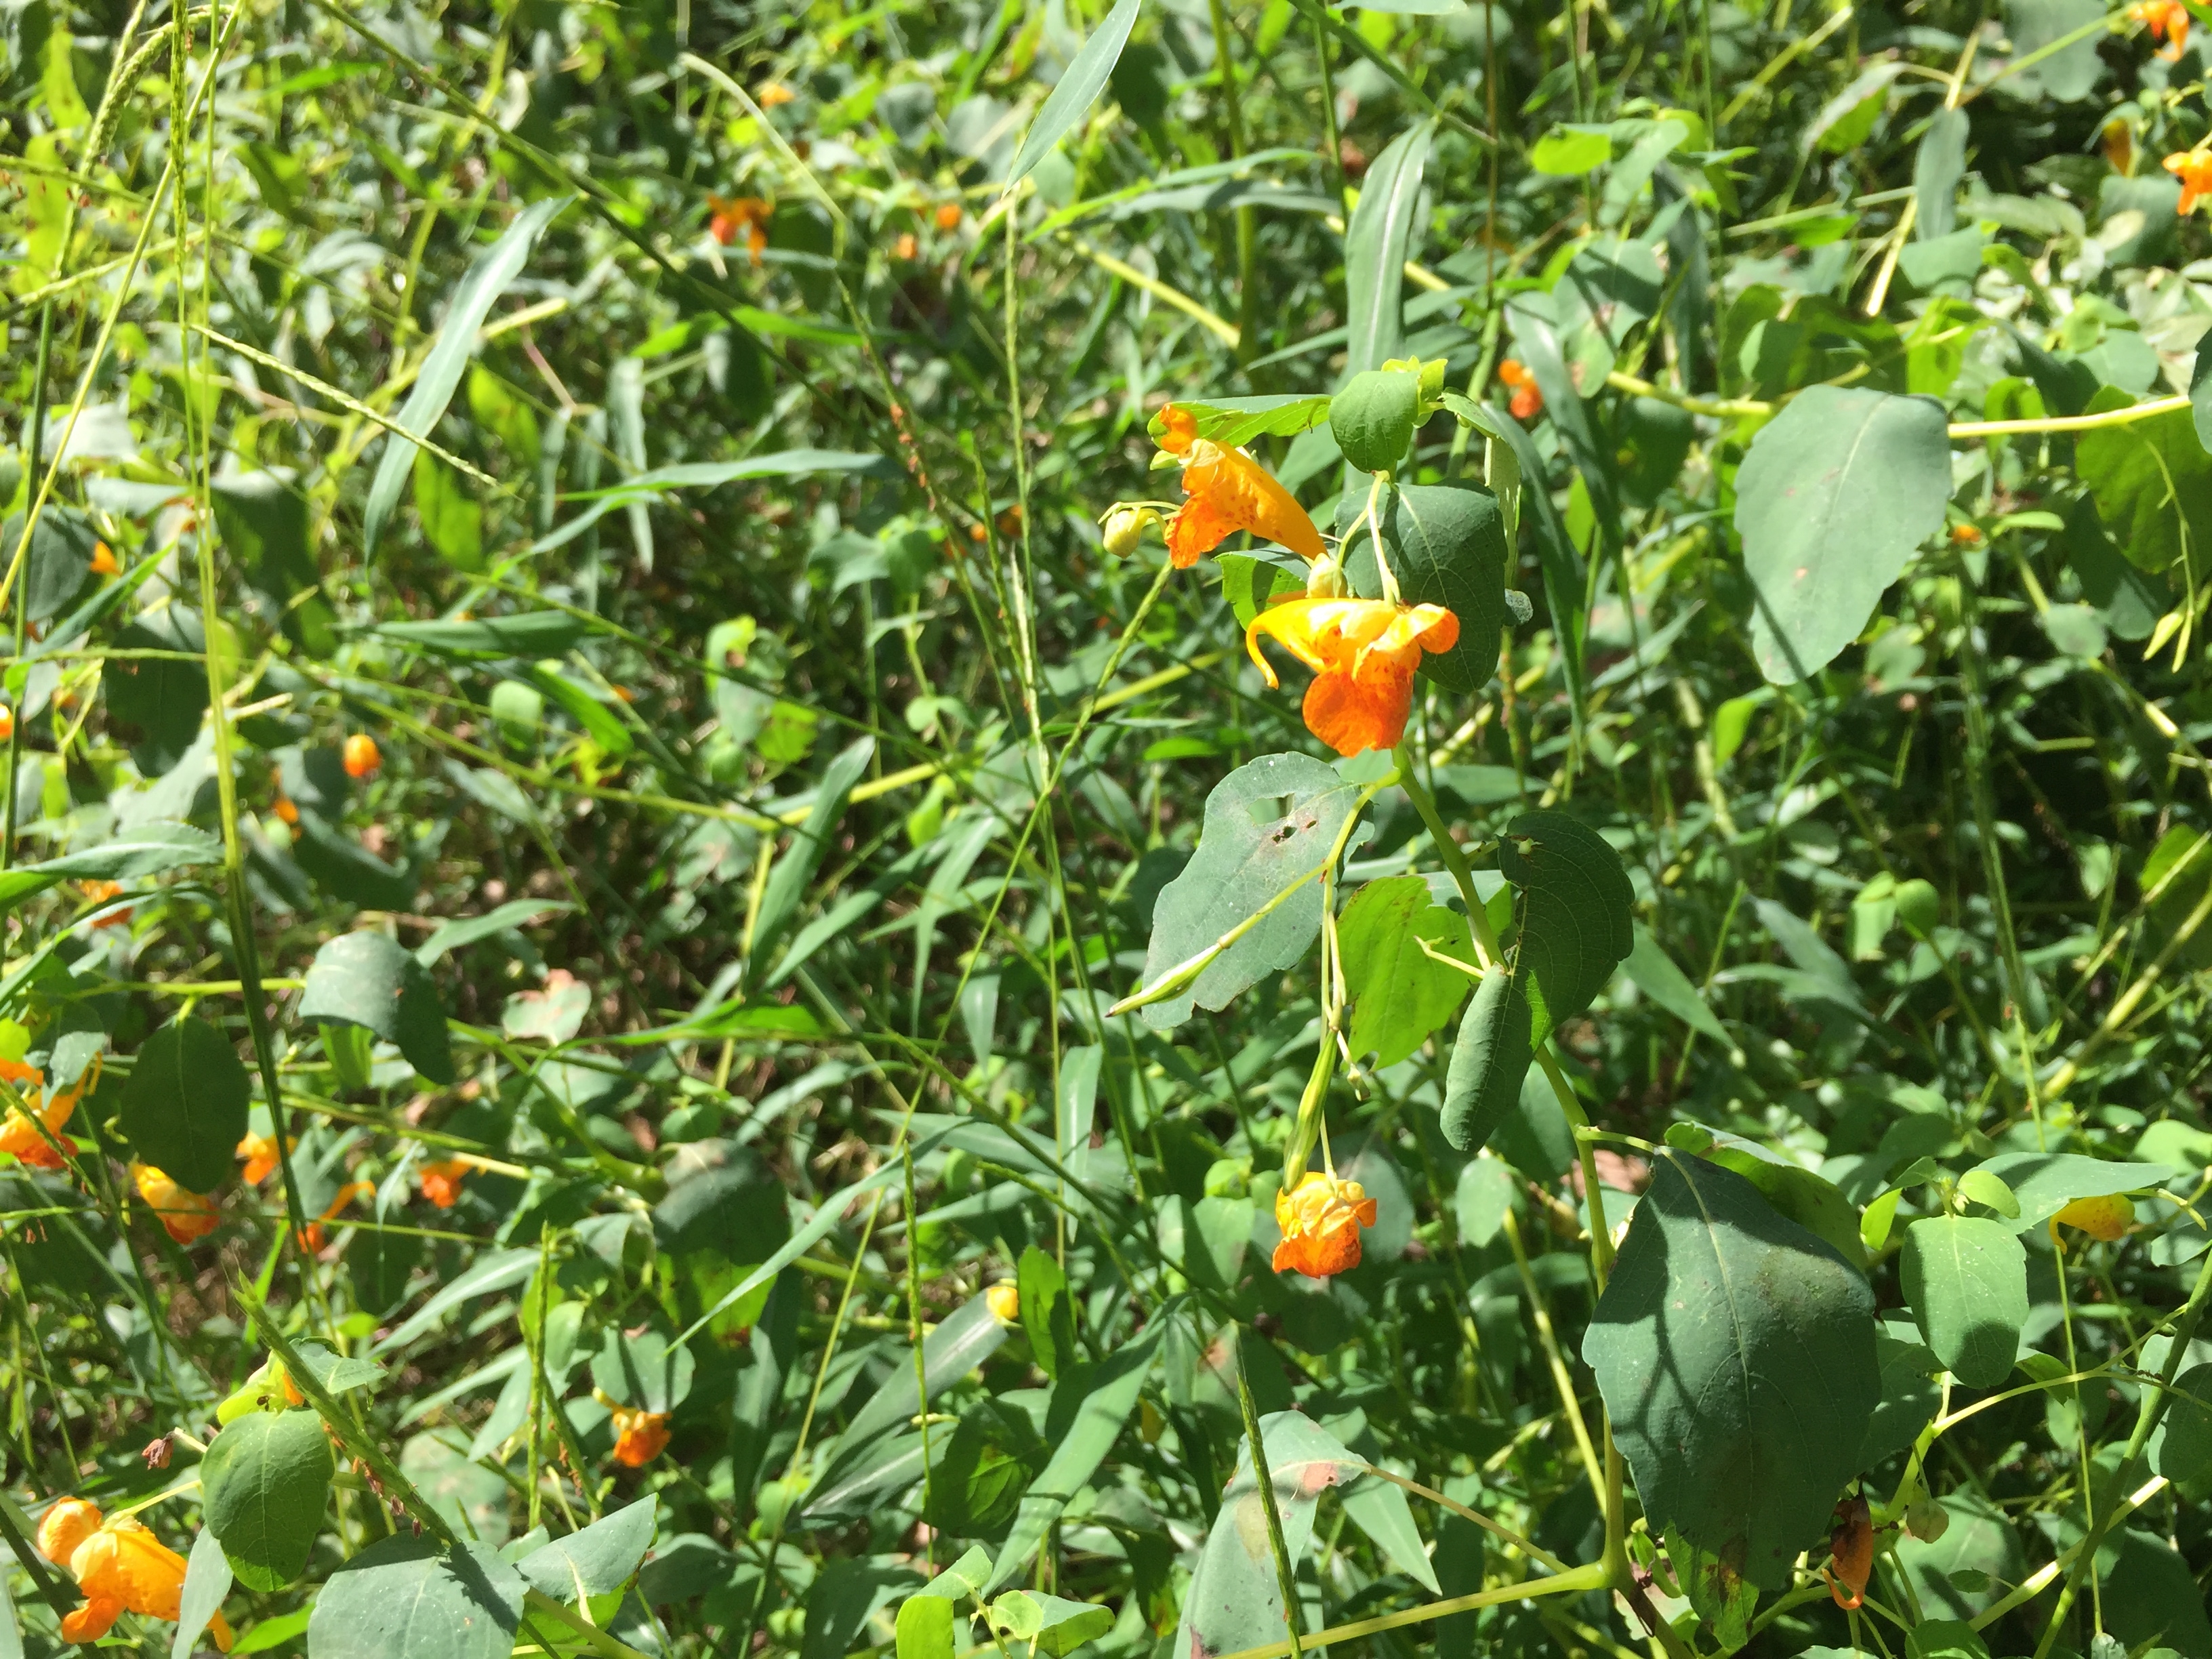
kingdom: Plantae
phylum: Tracheophyta
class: Magnoliopsida
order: Ericales
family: Balsaminaceae
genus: Impatiens
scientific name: Impatiens capensis
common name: Orange Jewelweed
